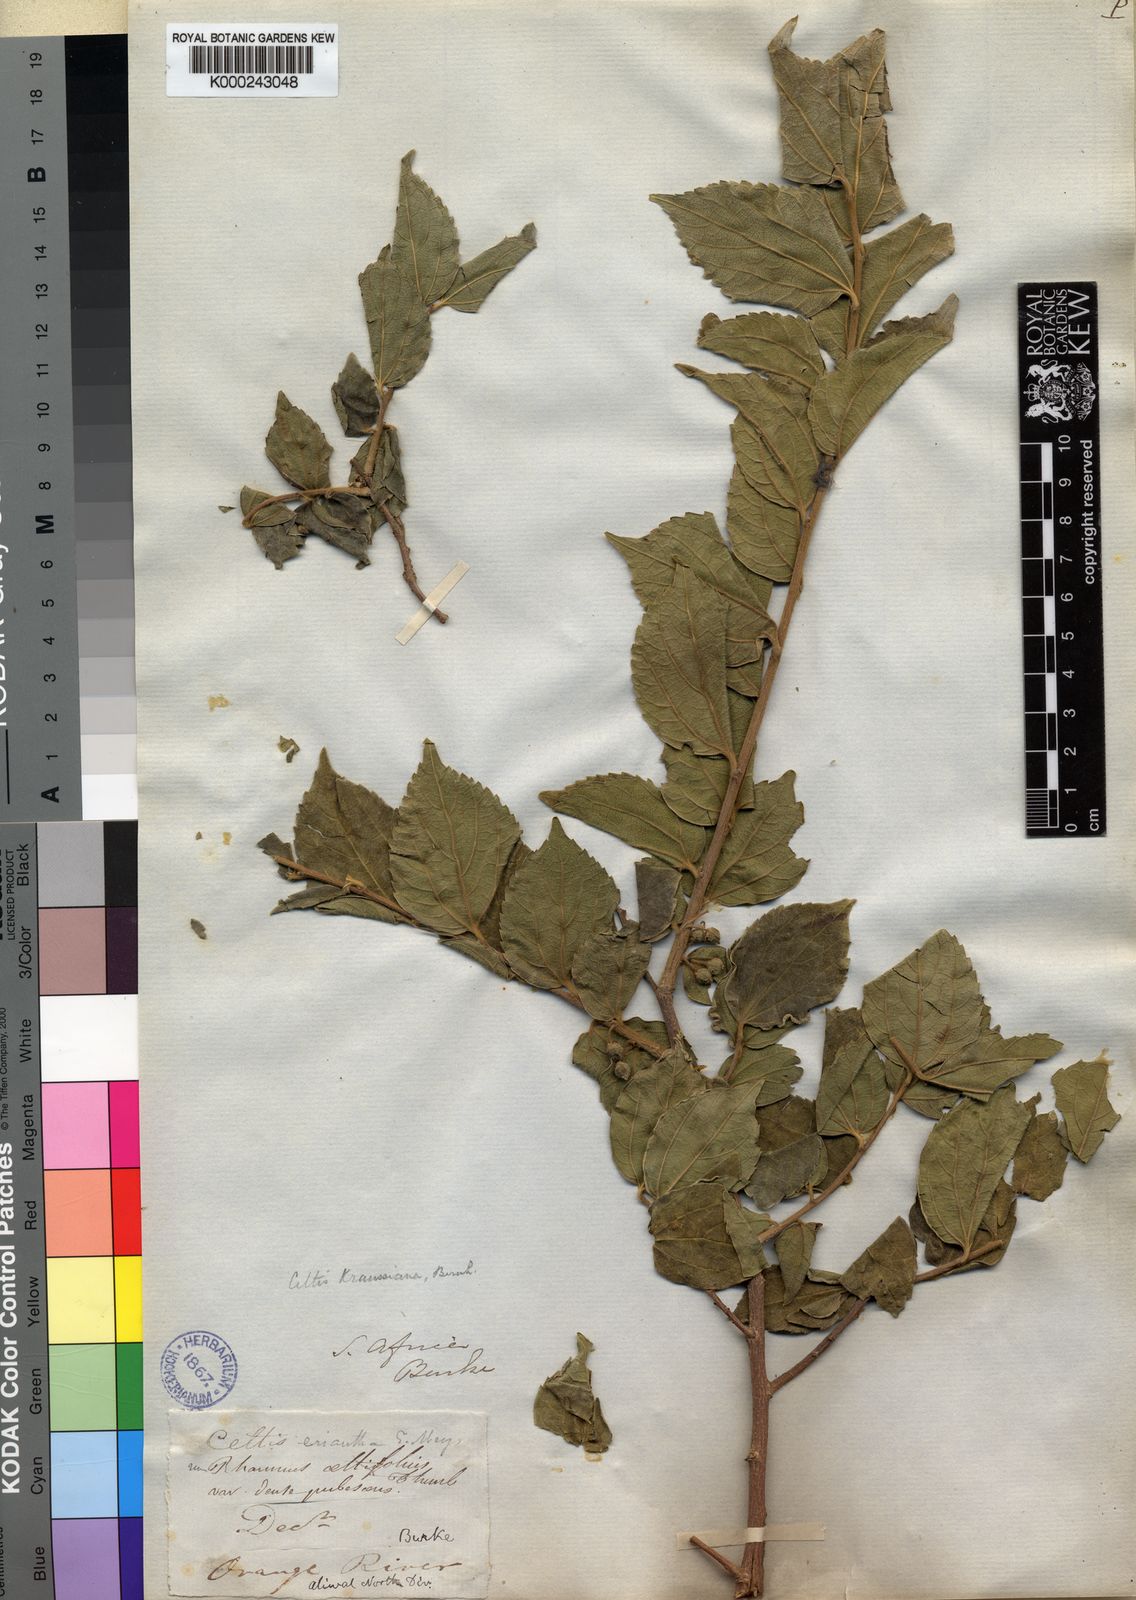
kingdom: Plantae
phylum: Tracheophyta
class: Magnoliopsida
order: Rosales
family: Cannabaceae
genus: Celtis
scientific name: Celtis africana
